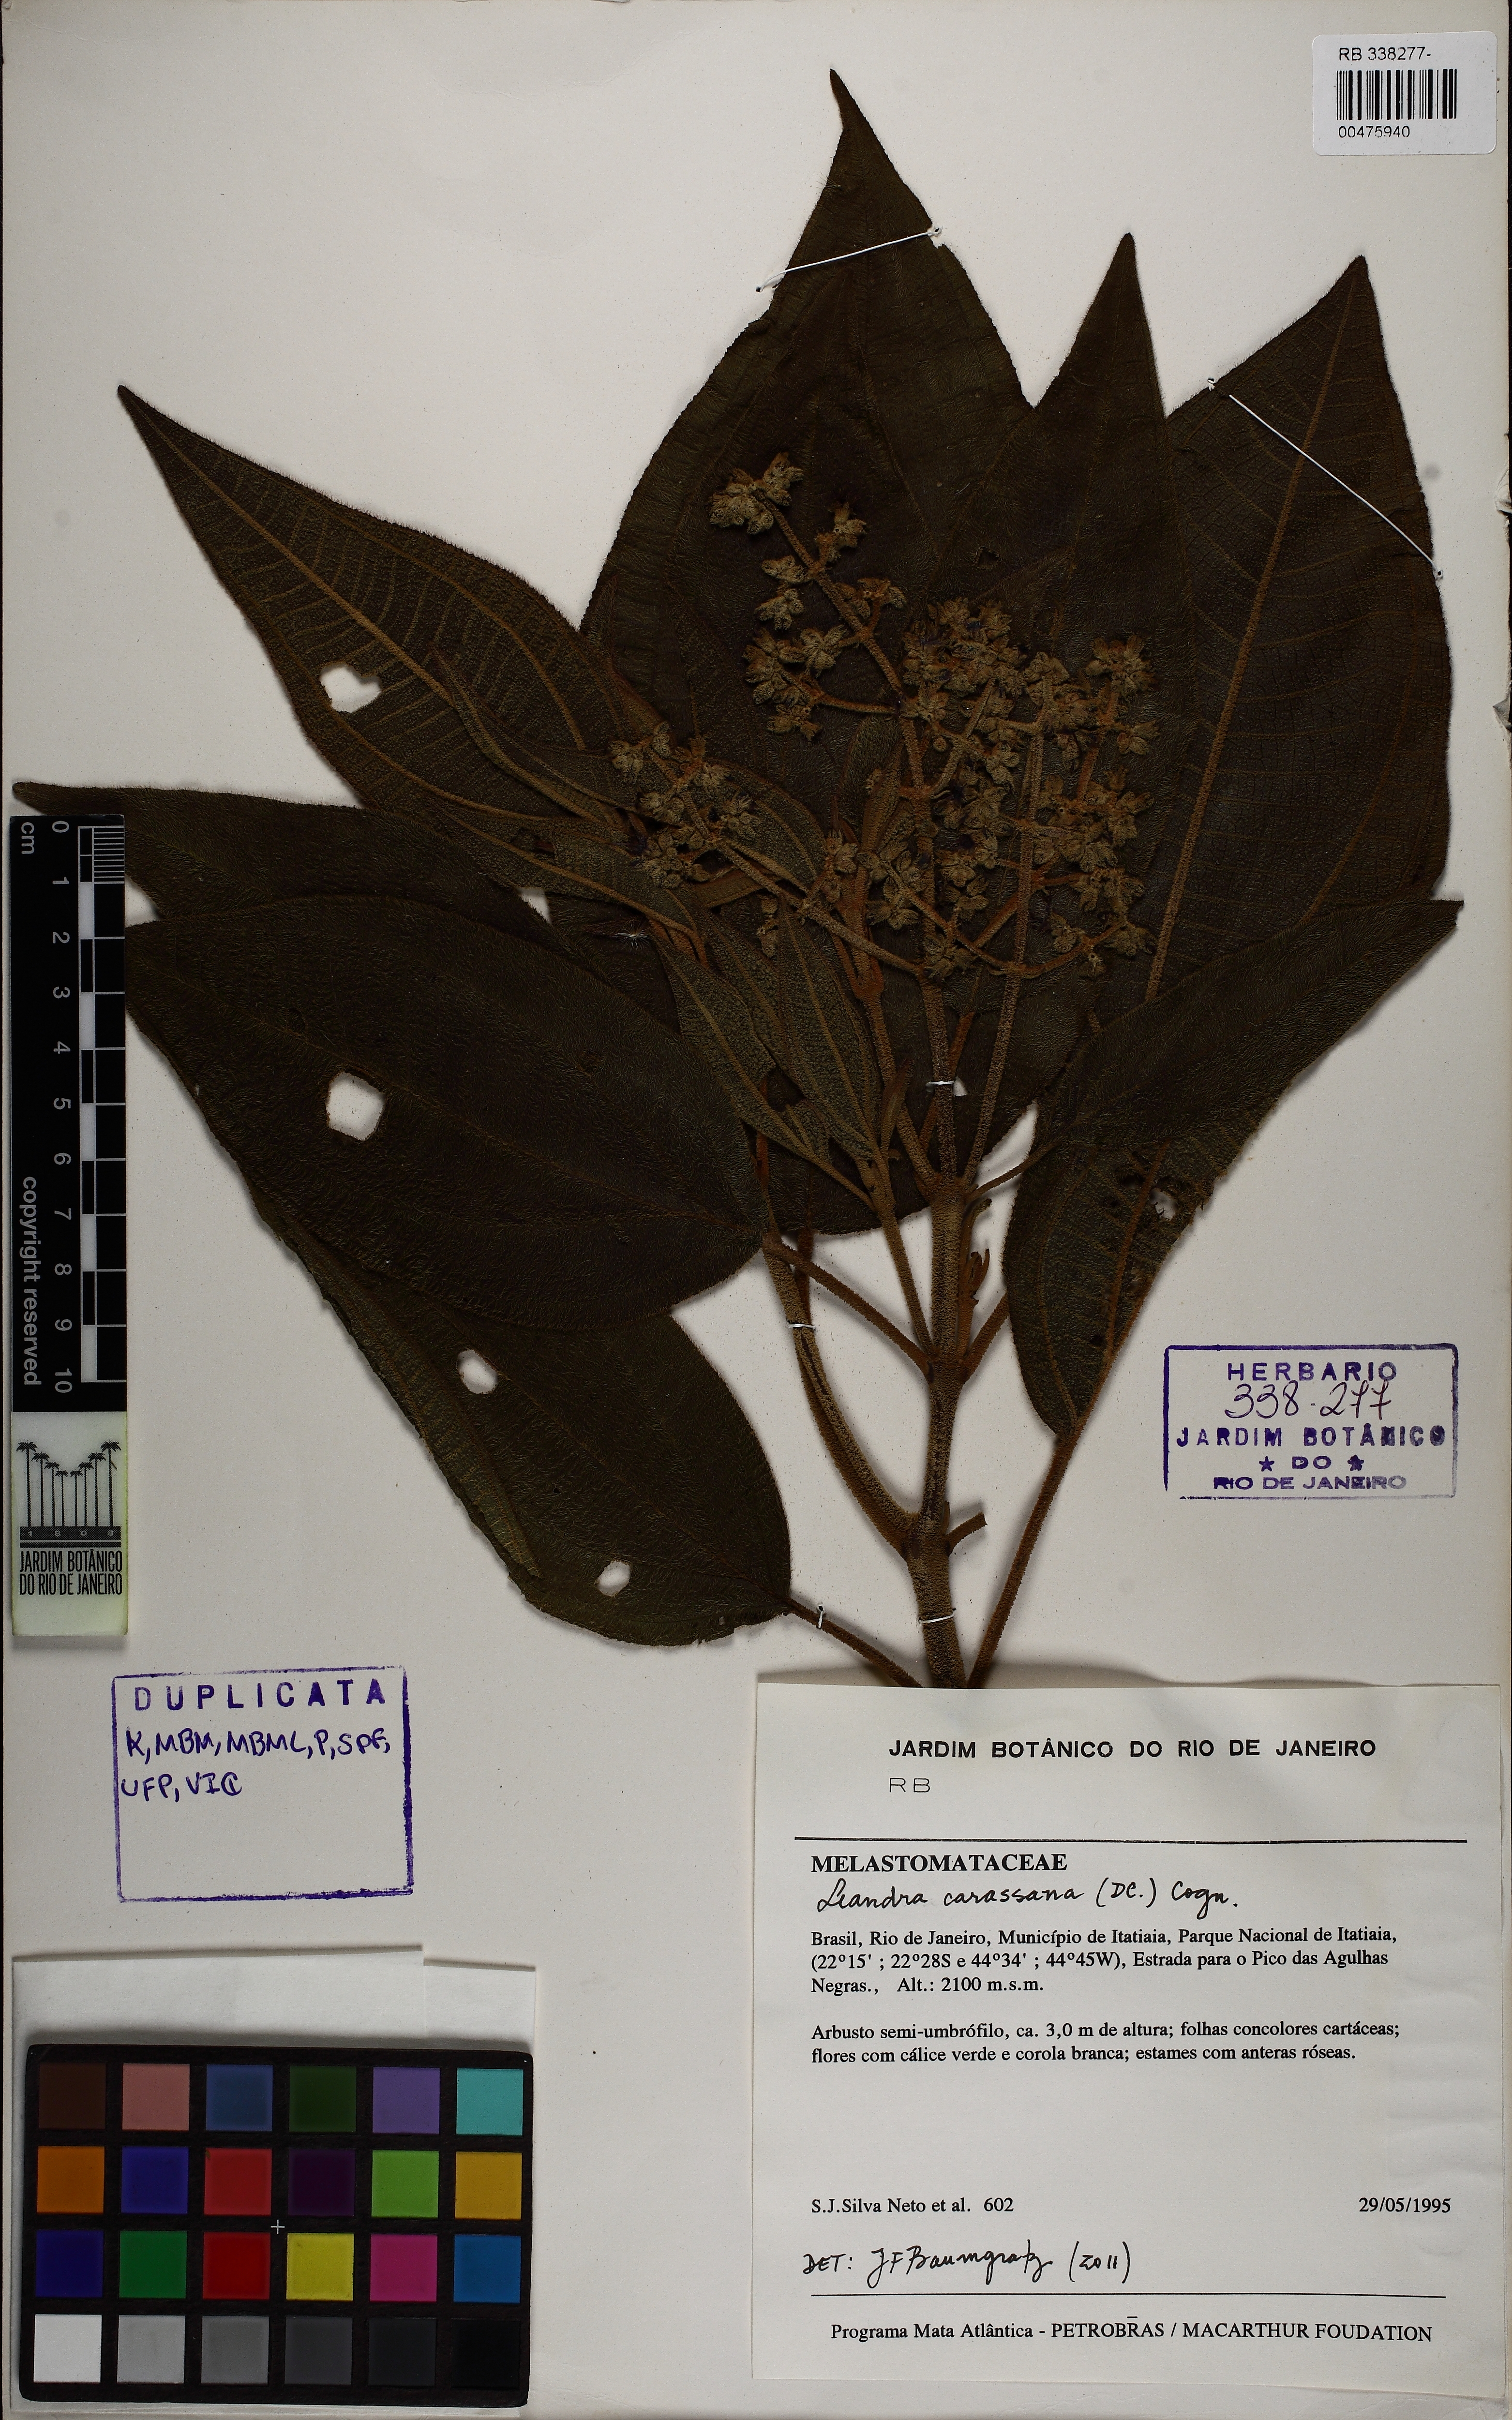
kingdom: Plantae
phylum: Tracheophyta
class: Magnoliopsida
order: Myrtales
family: Melastomataceae
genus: Miconia
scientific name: Miconia sublanata
